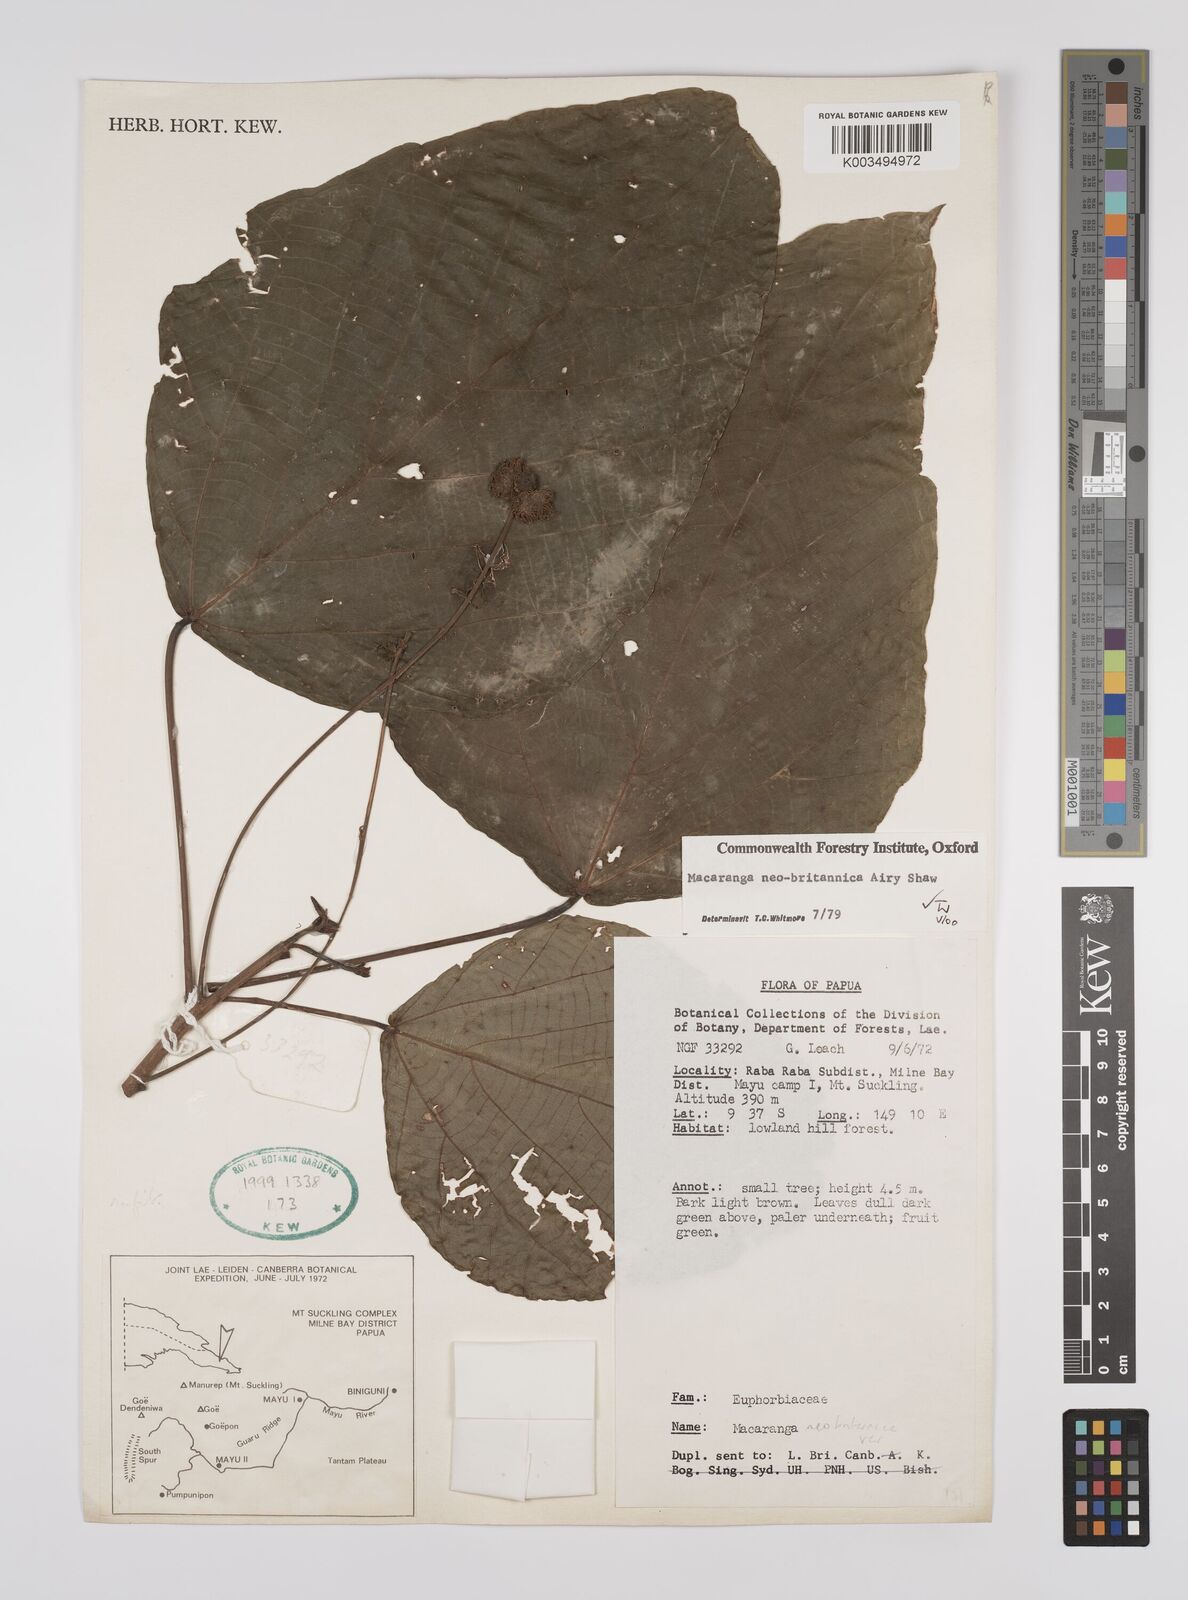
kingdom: Plantae
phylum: Tracheophyta
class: Magnoliopsida
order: Malpighiales
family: Euphorbiaceae
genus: Macaranga
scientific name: Macaranga neobritannica
